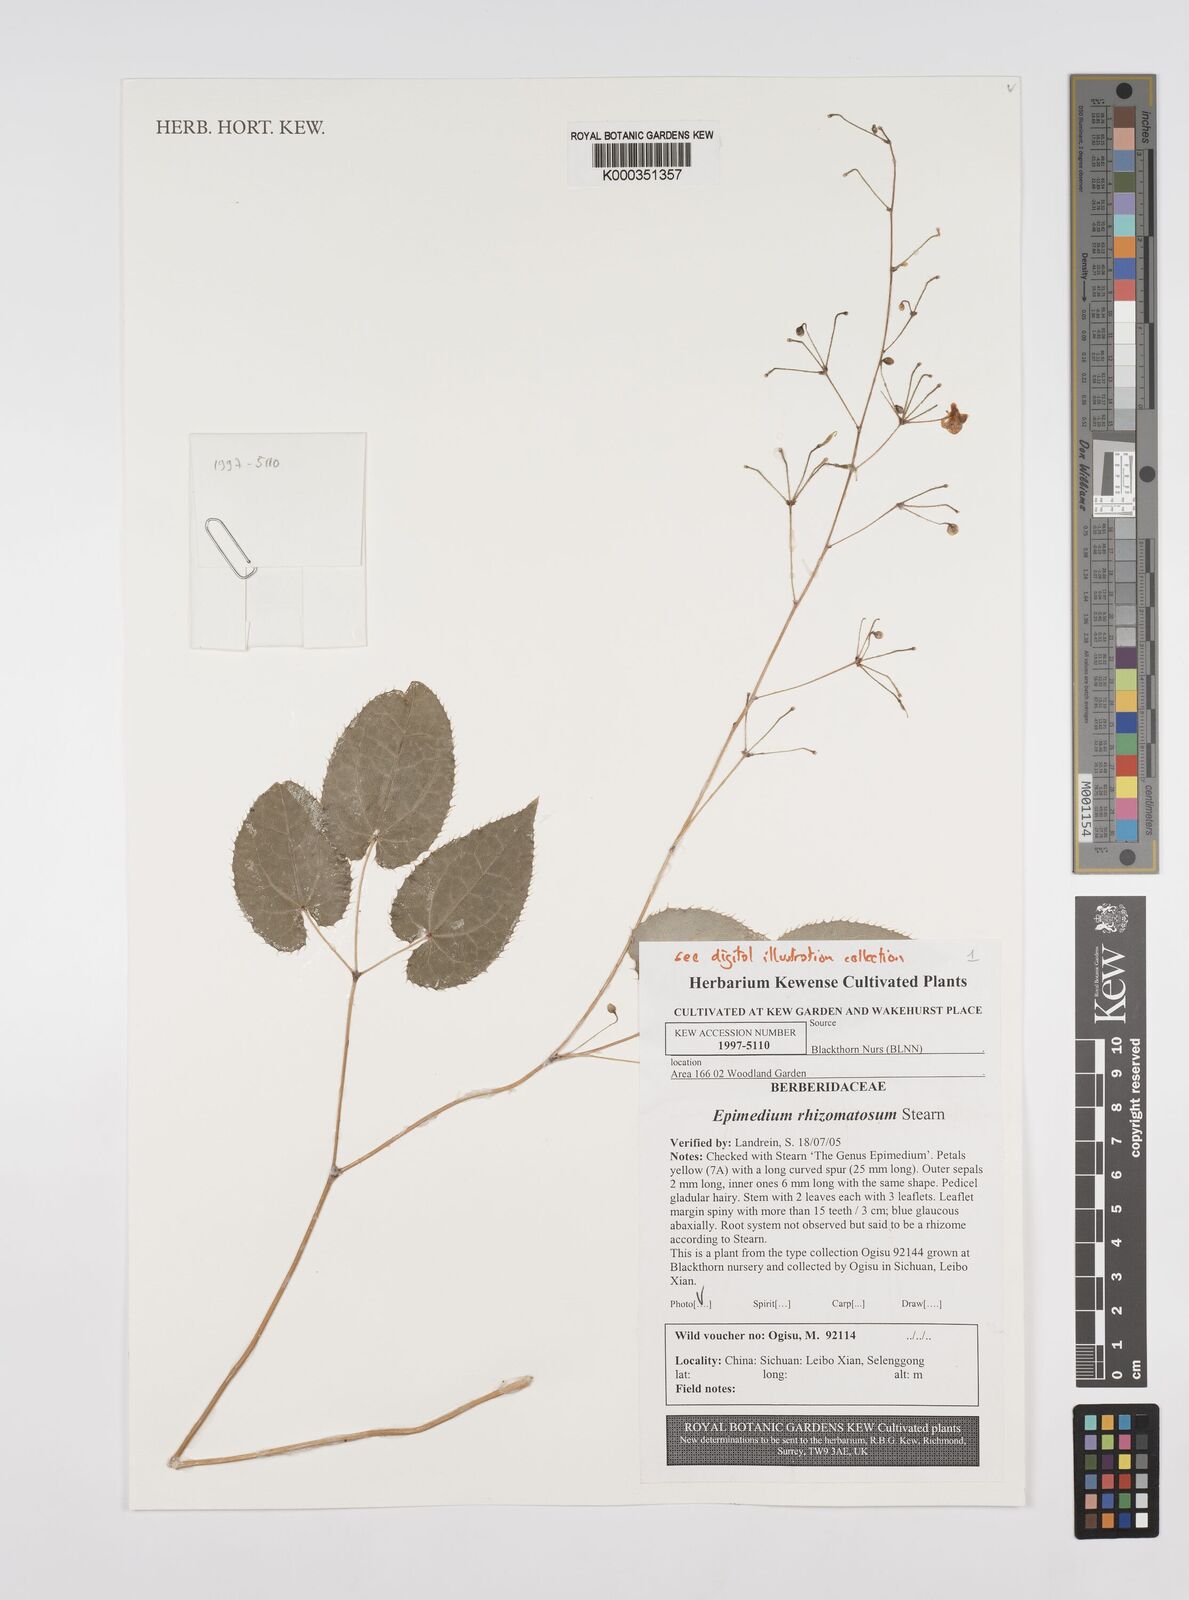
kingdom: Plantae
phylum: Tracheophyta
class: Magnoliopsida
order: Ranunculales
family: Berberidaceae
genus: Epimedium
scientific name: Epimedium davidii
